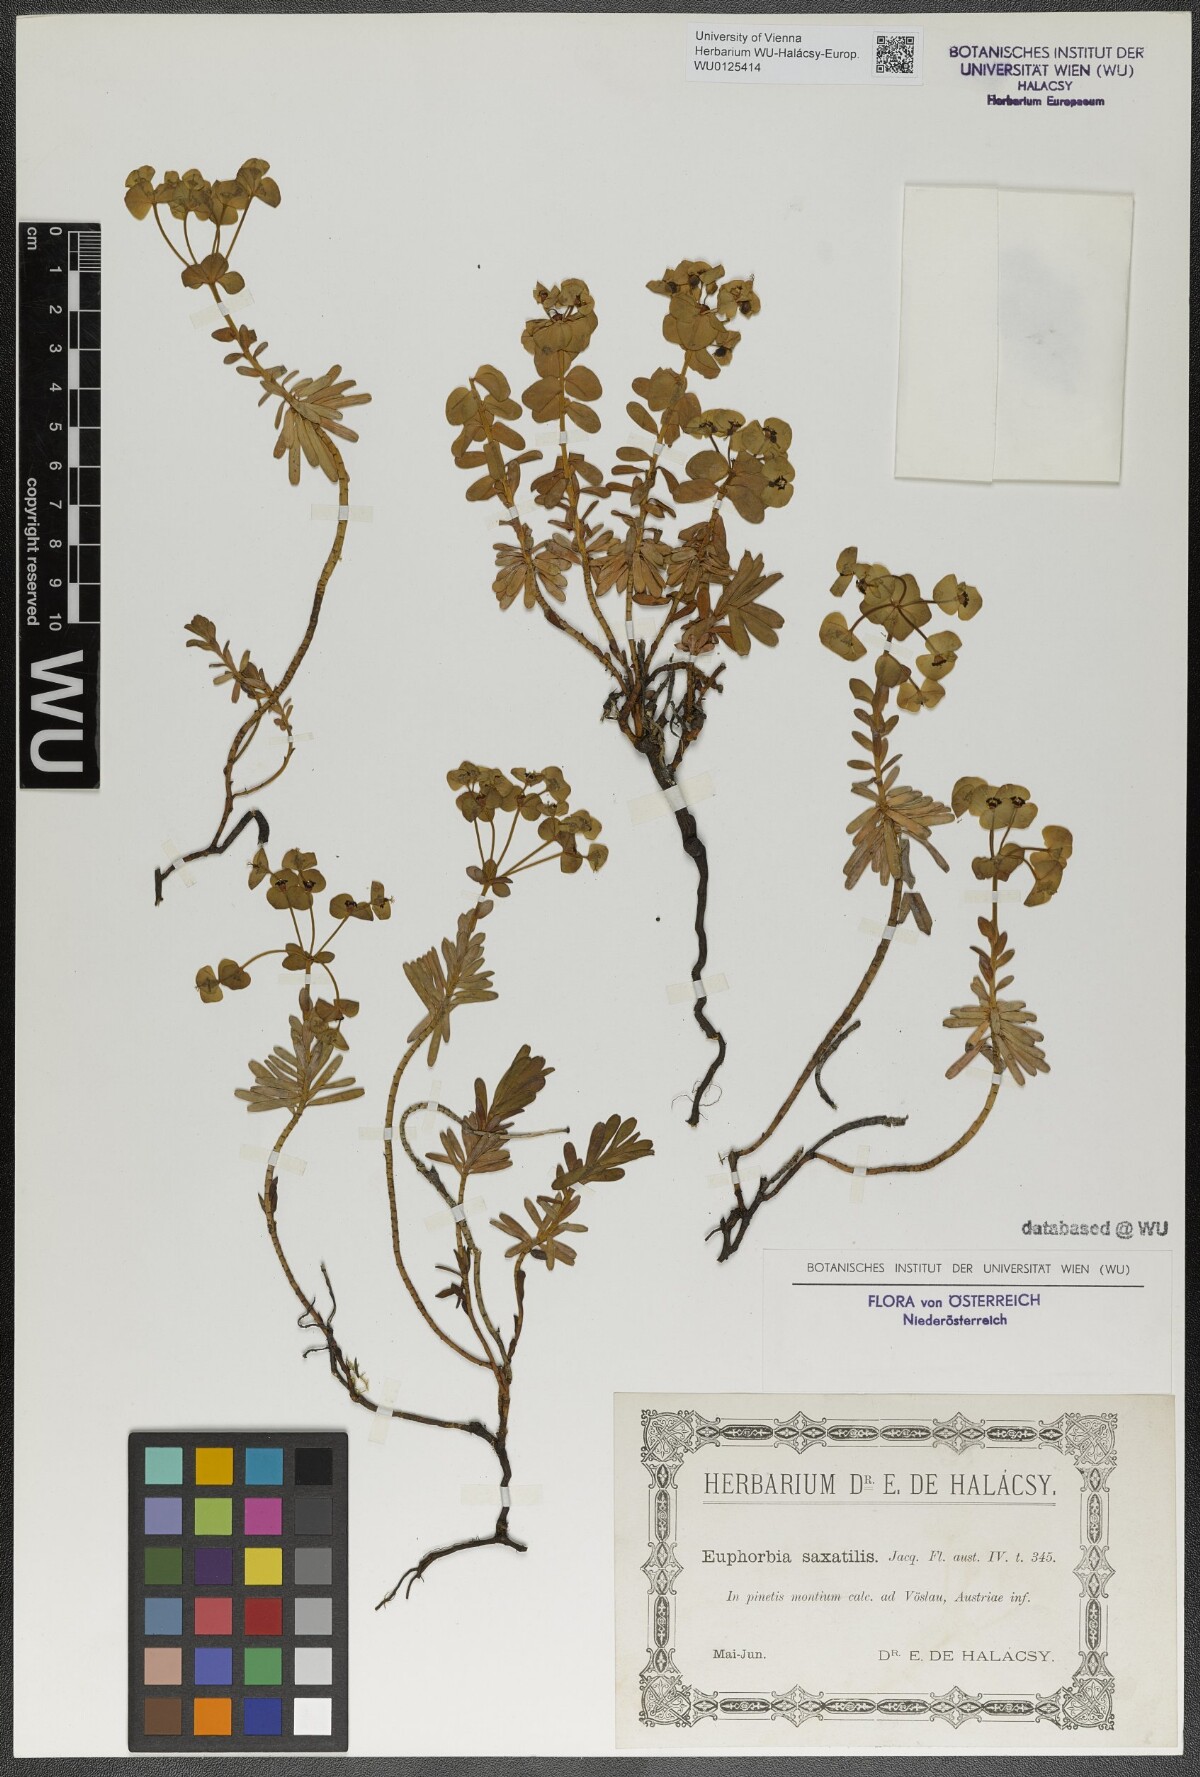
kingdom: Plantae
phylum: Tracheophyta
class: Magnoliopsida
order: Malpighiales
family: Euphorbiaceae
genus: Euphorbia
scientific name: Euphorbia saxatilis
